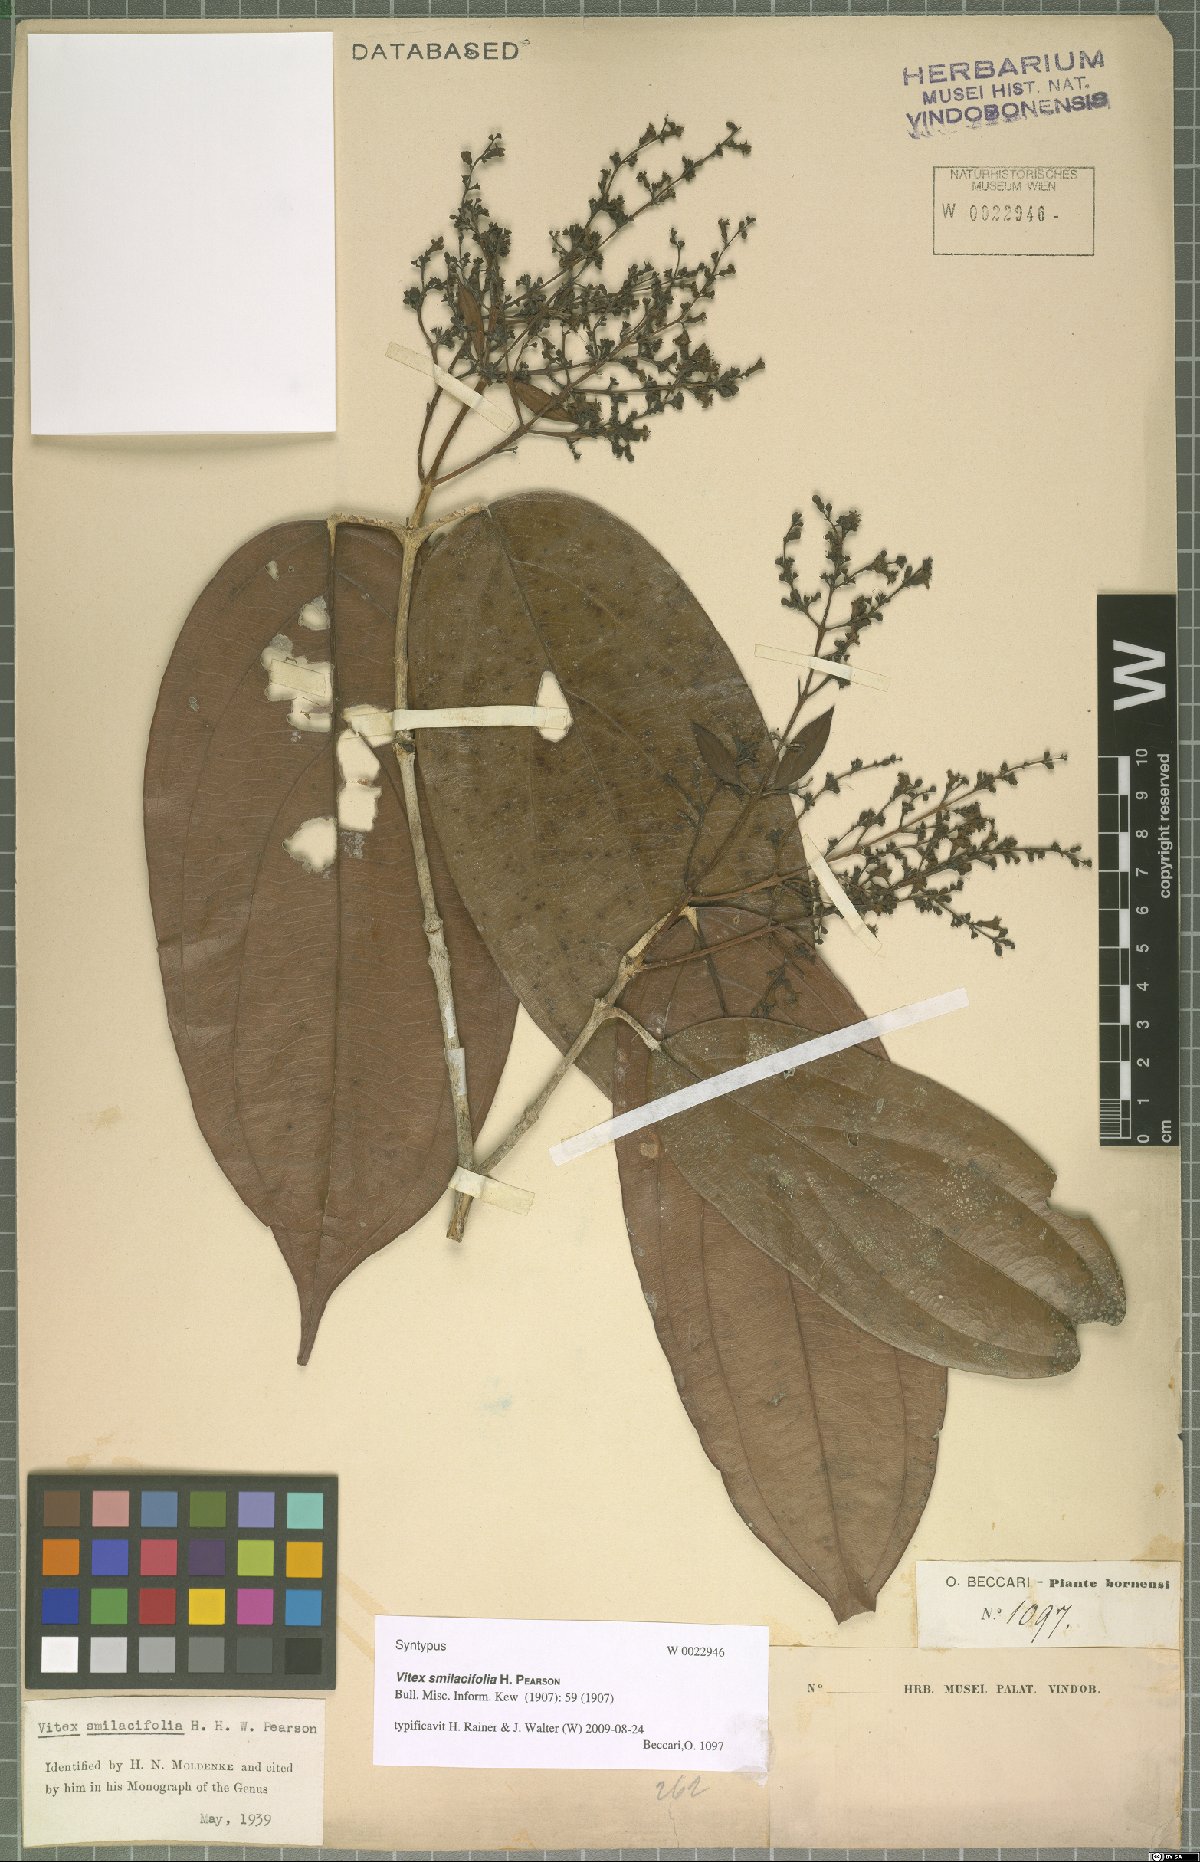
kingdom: Plantae
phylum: Tracheophyta
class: Magnoliopsida
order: Lamiales
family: Lamiaceae
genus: Teijsmanniodendron
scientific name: Teijsmanniodendron smilacifolium
